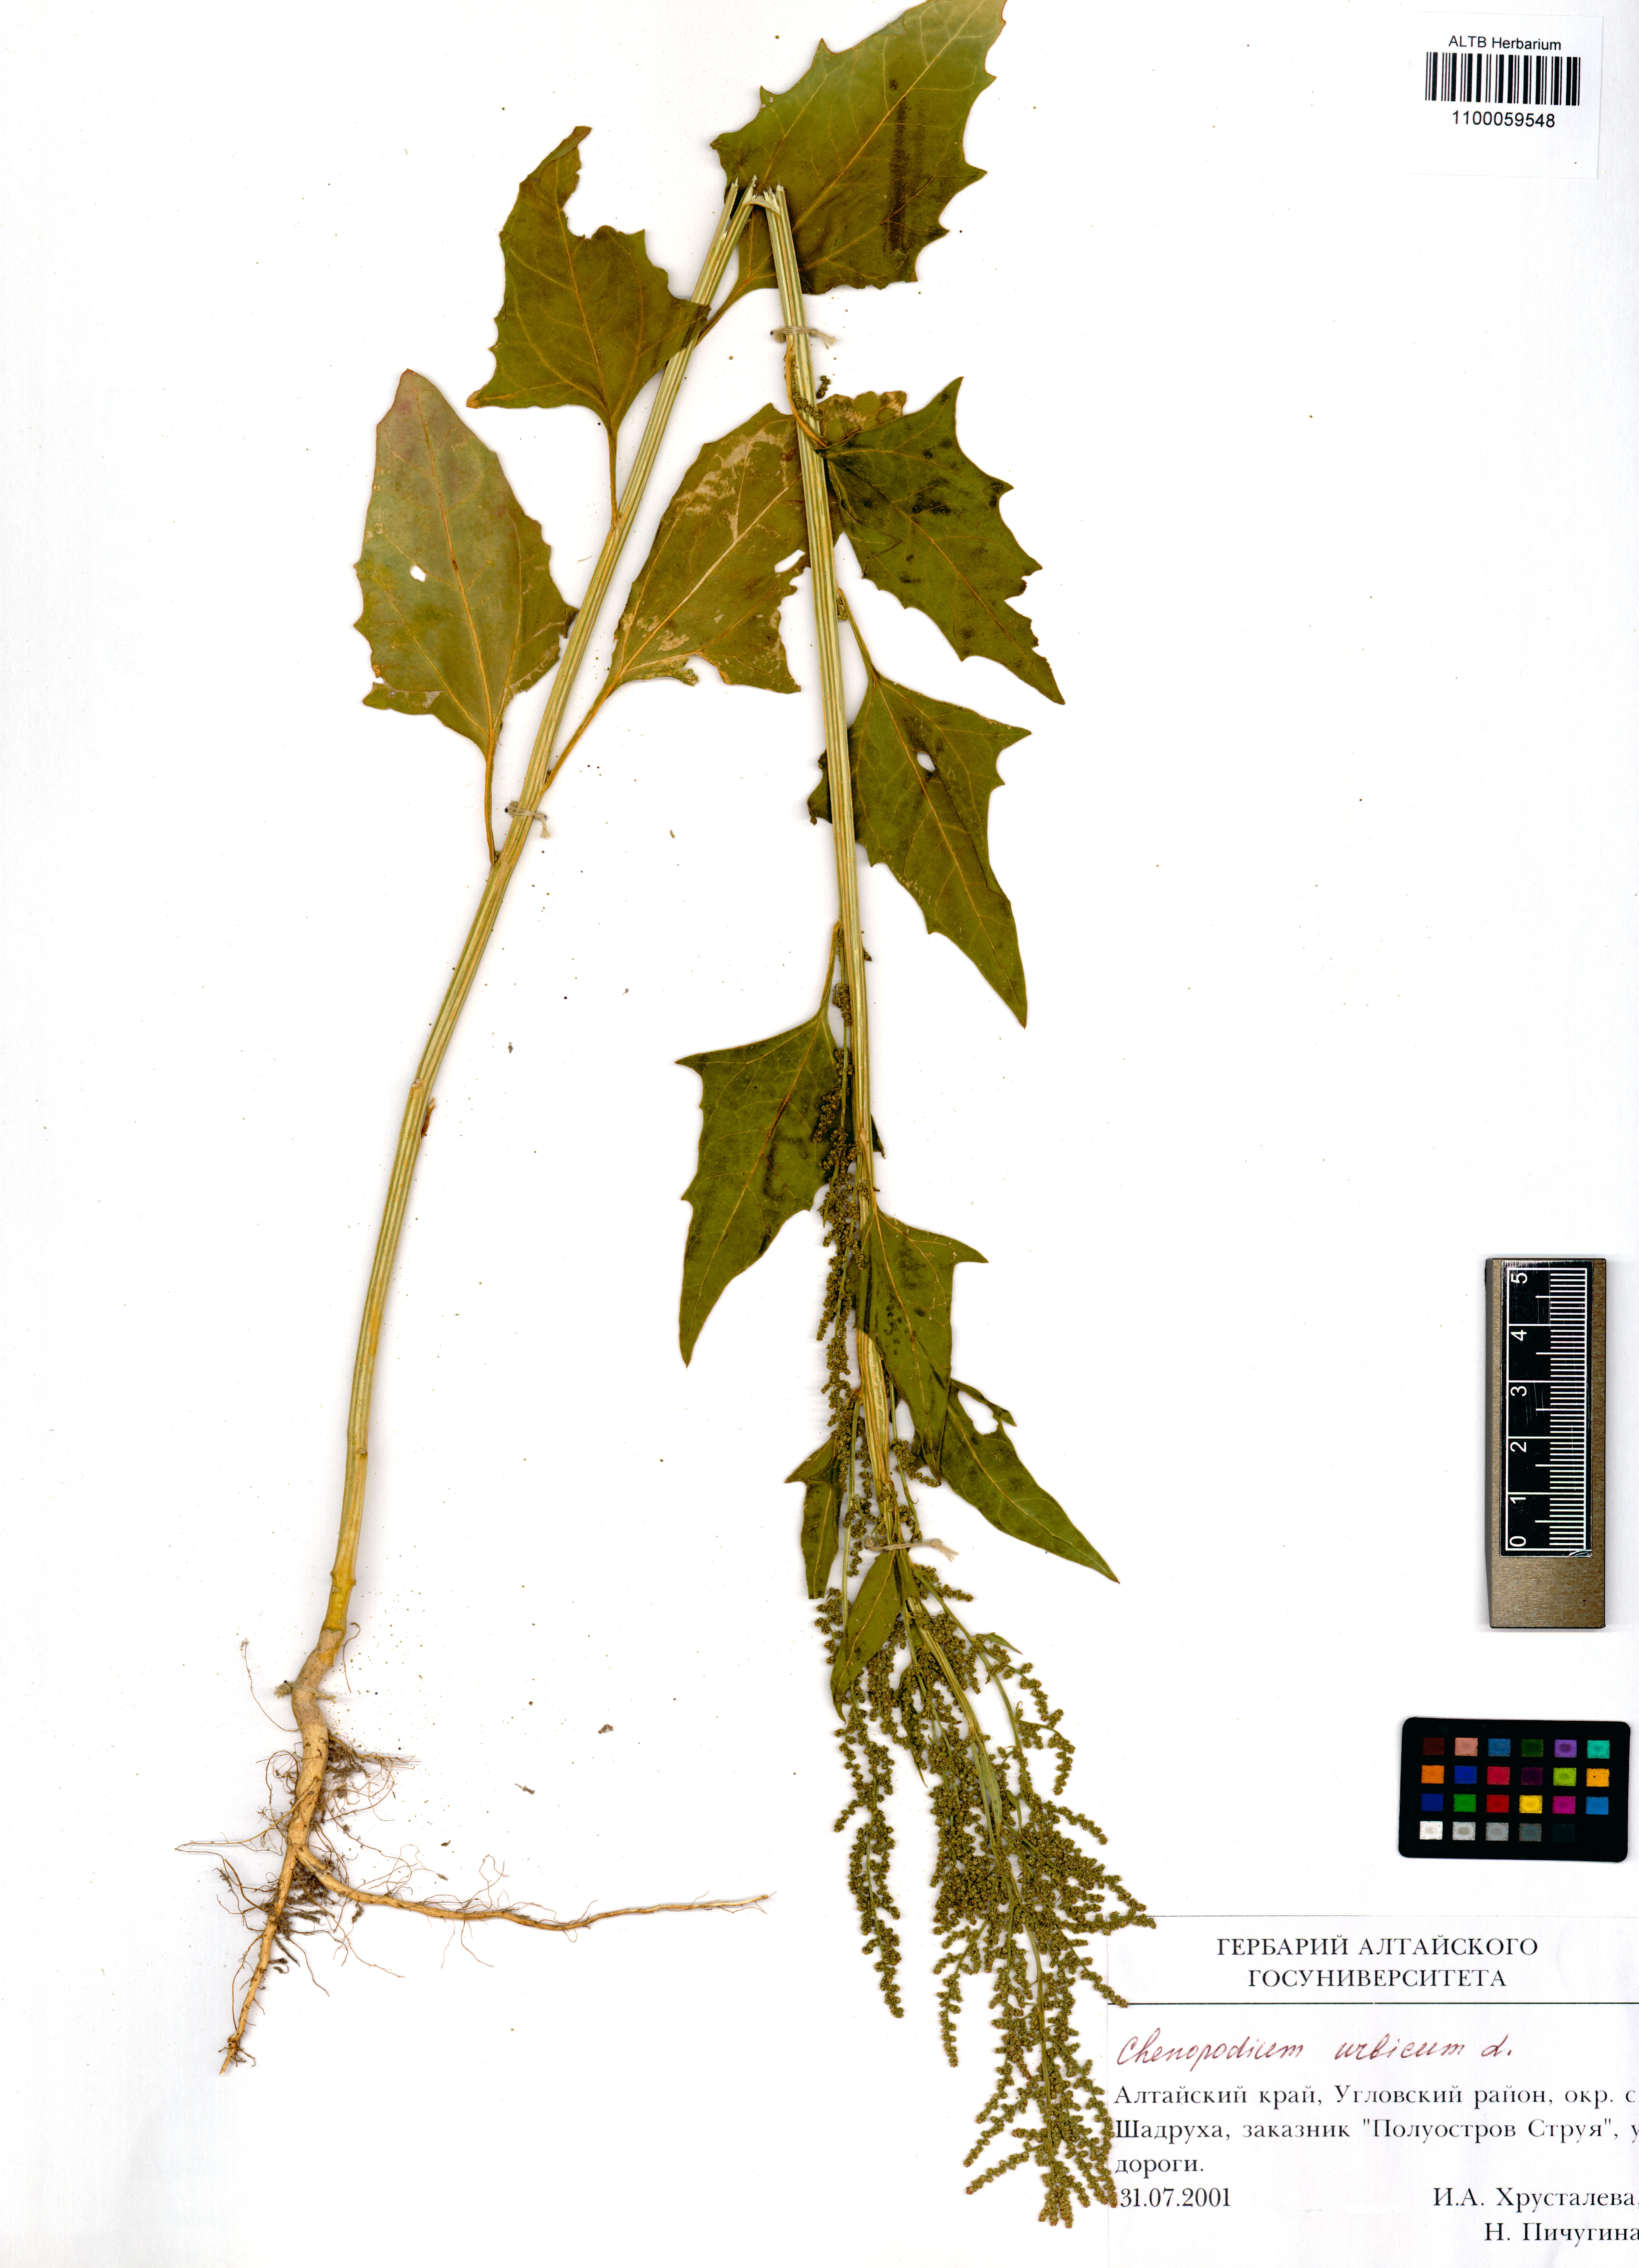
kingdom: Plantae
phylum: Tracheophyta
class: Magnoliopsida
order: Caryophyllales
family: Amaranthaceae
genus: Oxybasis
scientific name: Oxybasis urbica
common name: City goosefoot
